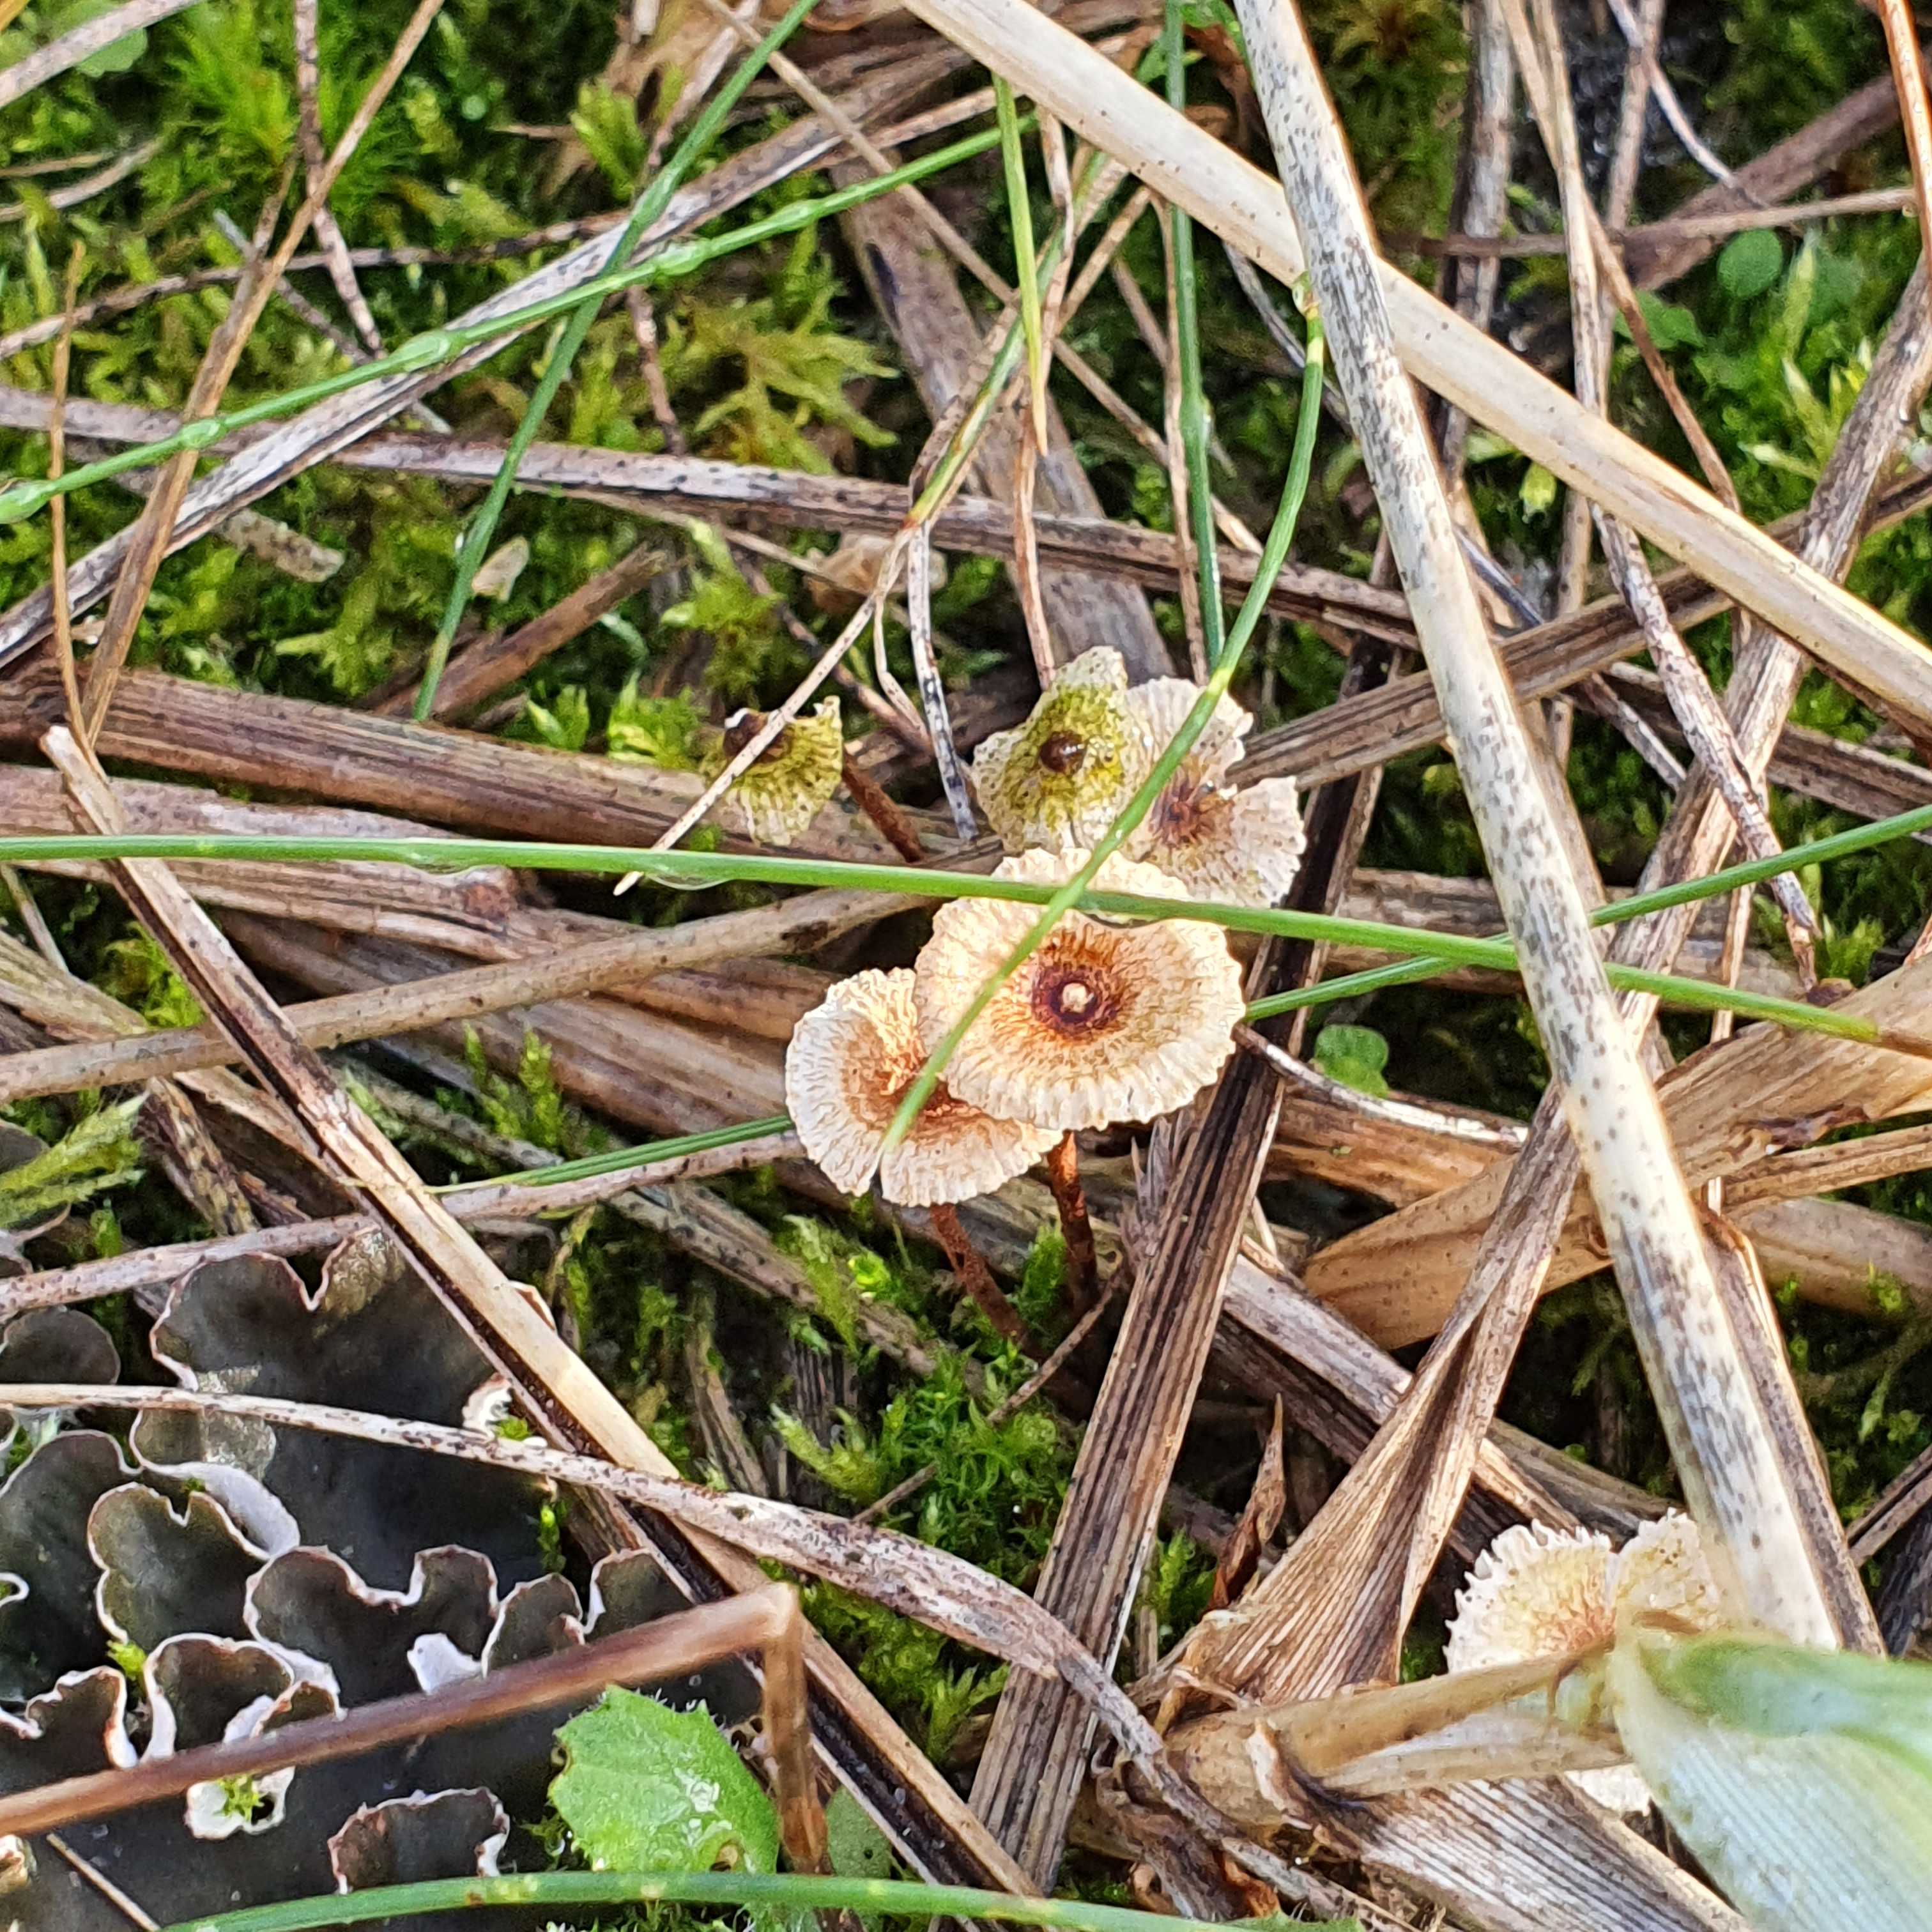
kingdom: Fungi
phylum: Basidiomycota
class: Agaricomycetes
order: Agaricales
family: Marasmiaceae
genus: Crinipellis
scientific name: Crinipellis scabella
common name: børstefod
